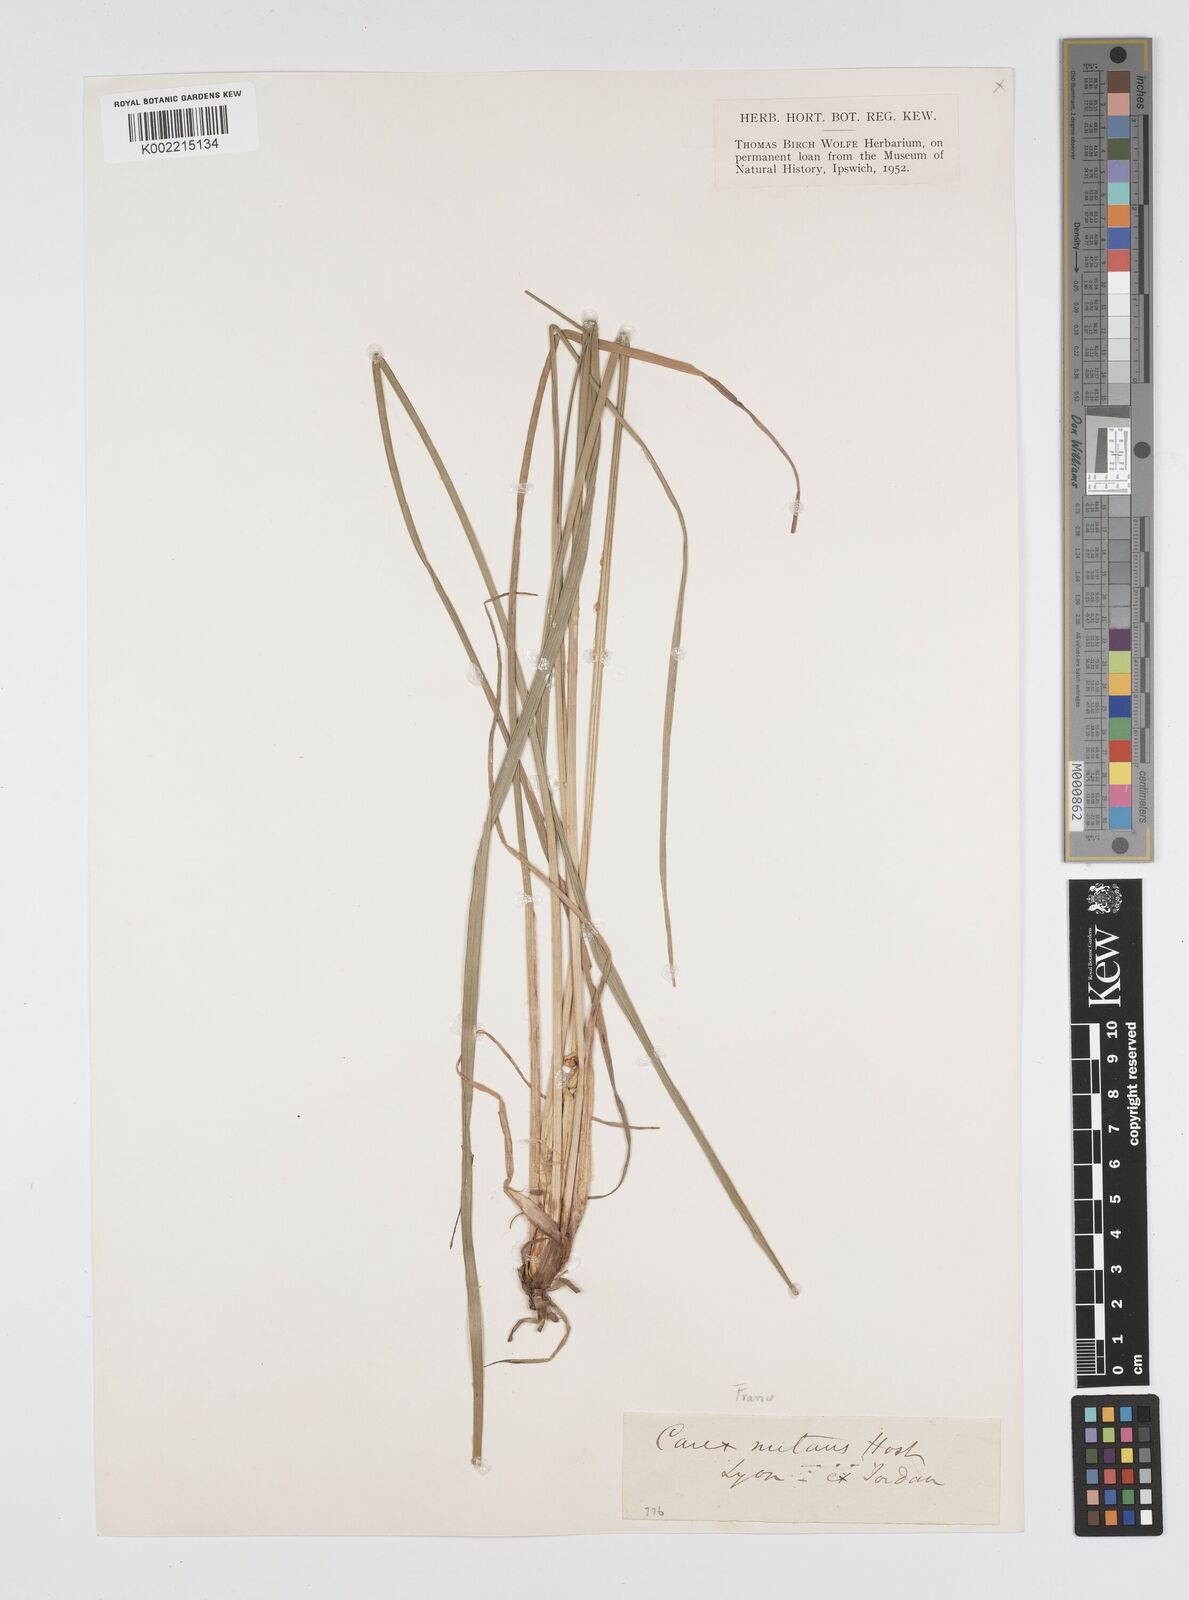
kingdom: Plantae
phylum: Tracheophyta
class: Liliopsida
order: Poales
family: Cyperaceae
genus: Carex
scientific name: Carex melanostachya
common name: Black-spiked sedge
